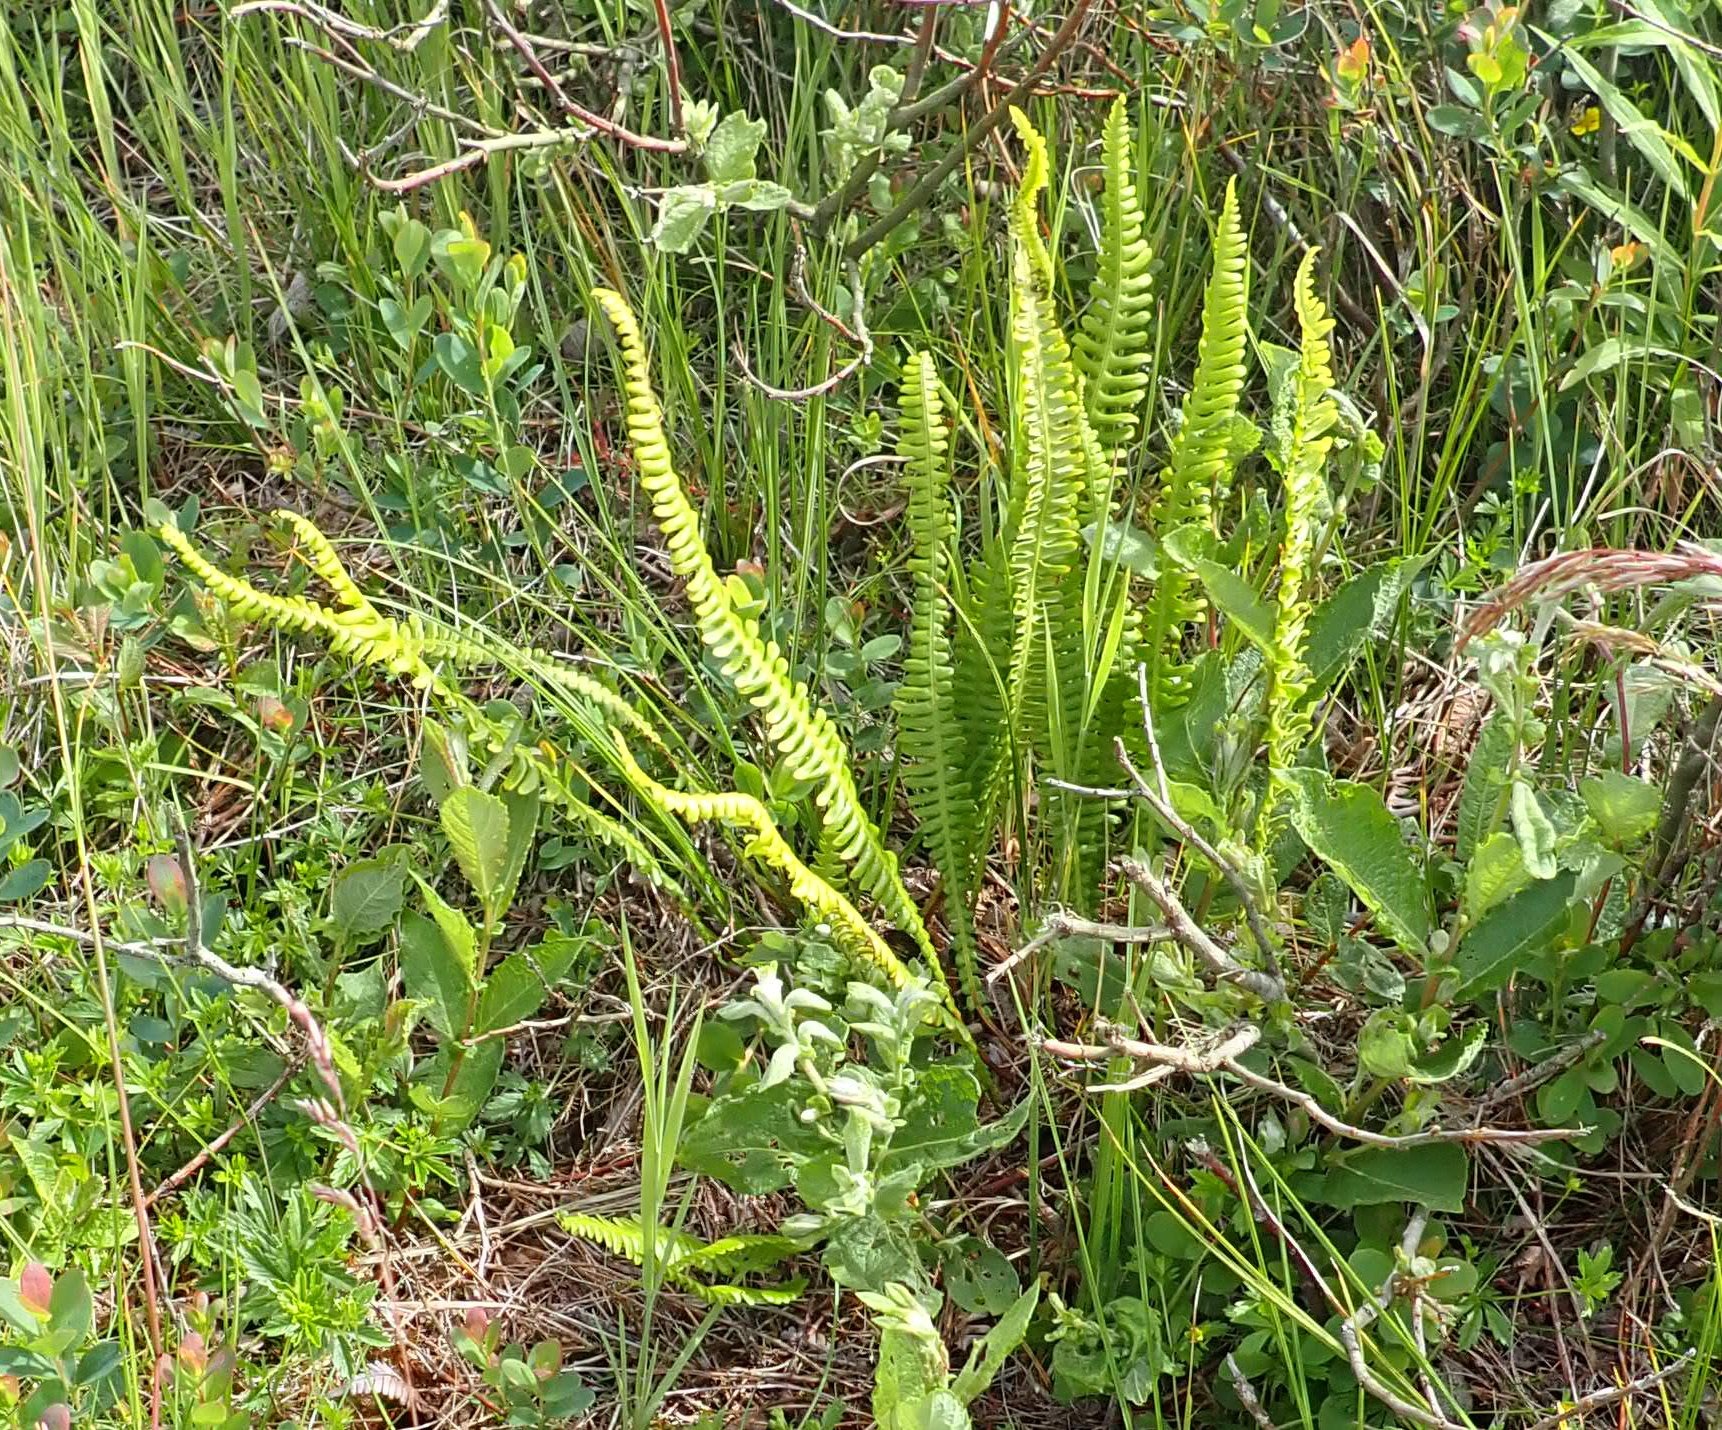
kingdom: Plantae
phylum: Tracheophyta
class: Polypodiopsida
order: Polypodiales
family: Blechnaceae
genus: Struthiopteris
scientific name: Struthiopteris spicant
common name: Kambregne
